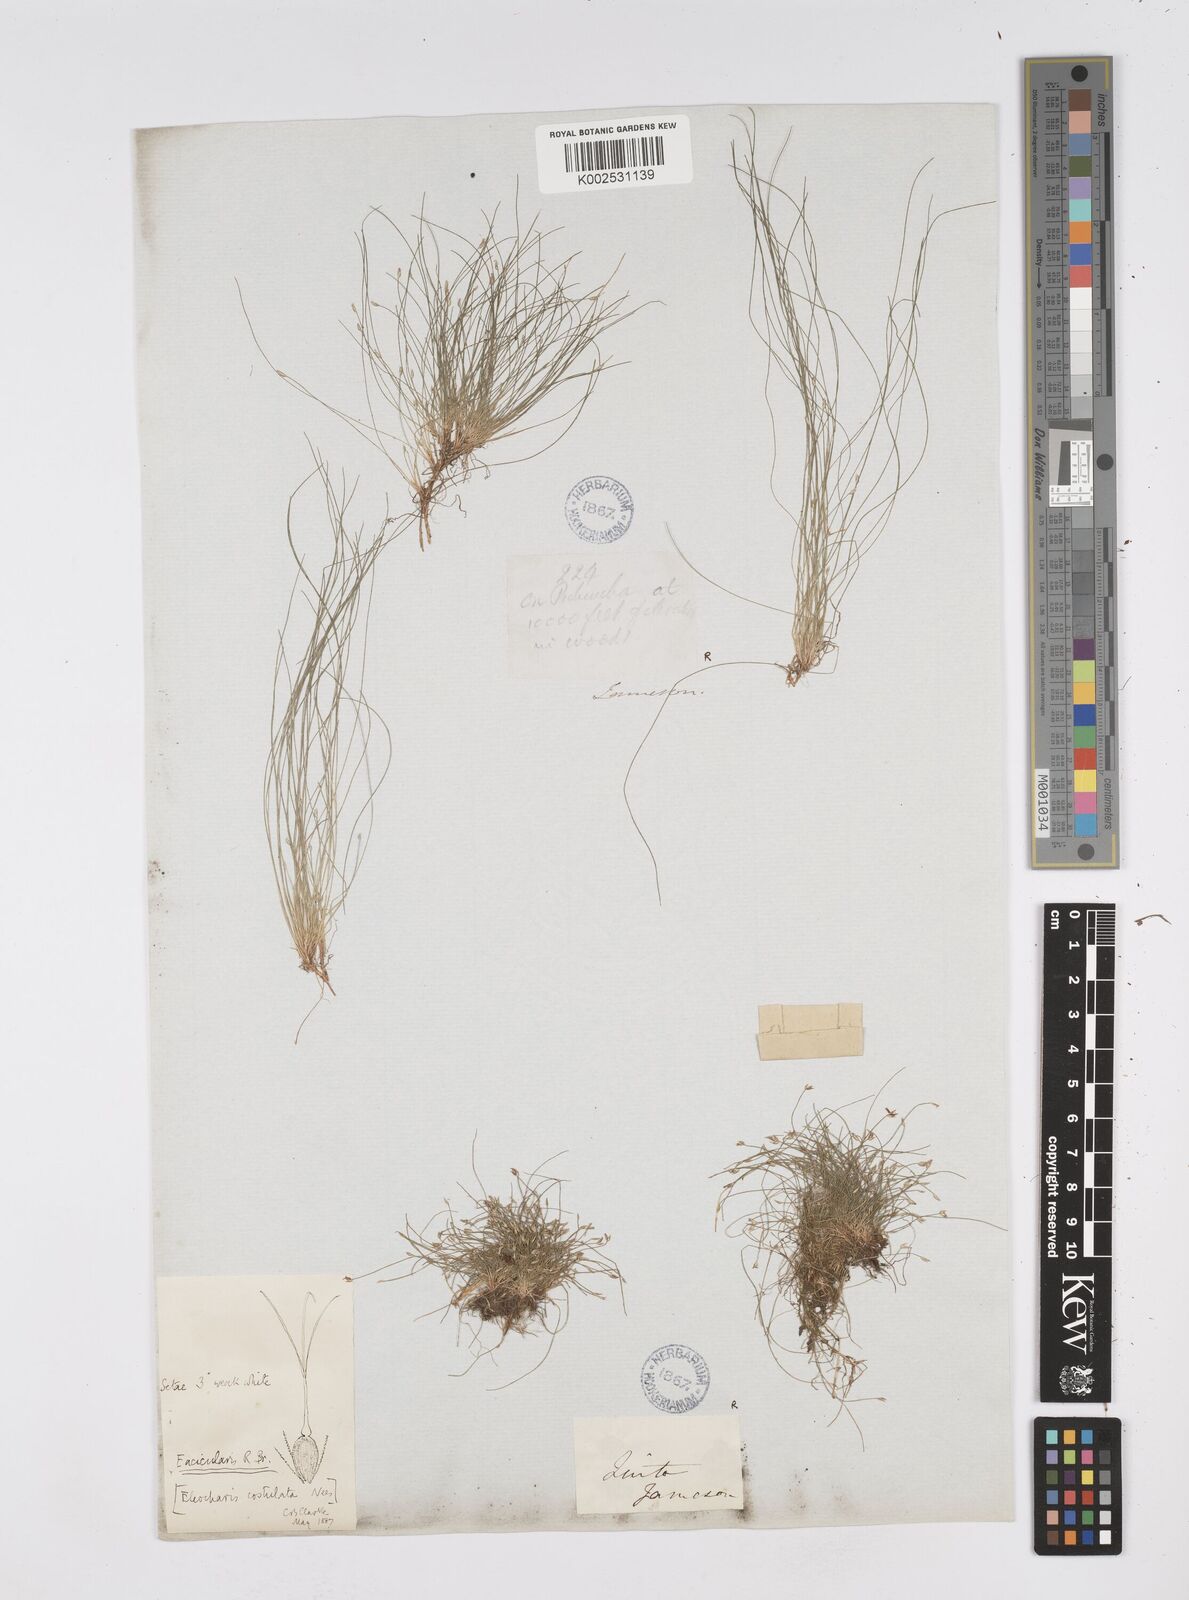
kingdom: Plantae
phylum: Tracheophyta
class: Liliopsida
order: Poales
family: Cyperaceae
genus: Eleocharis
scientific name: Eleocharis acicularis
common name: Needle spike-rush
